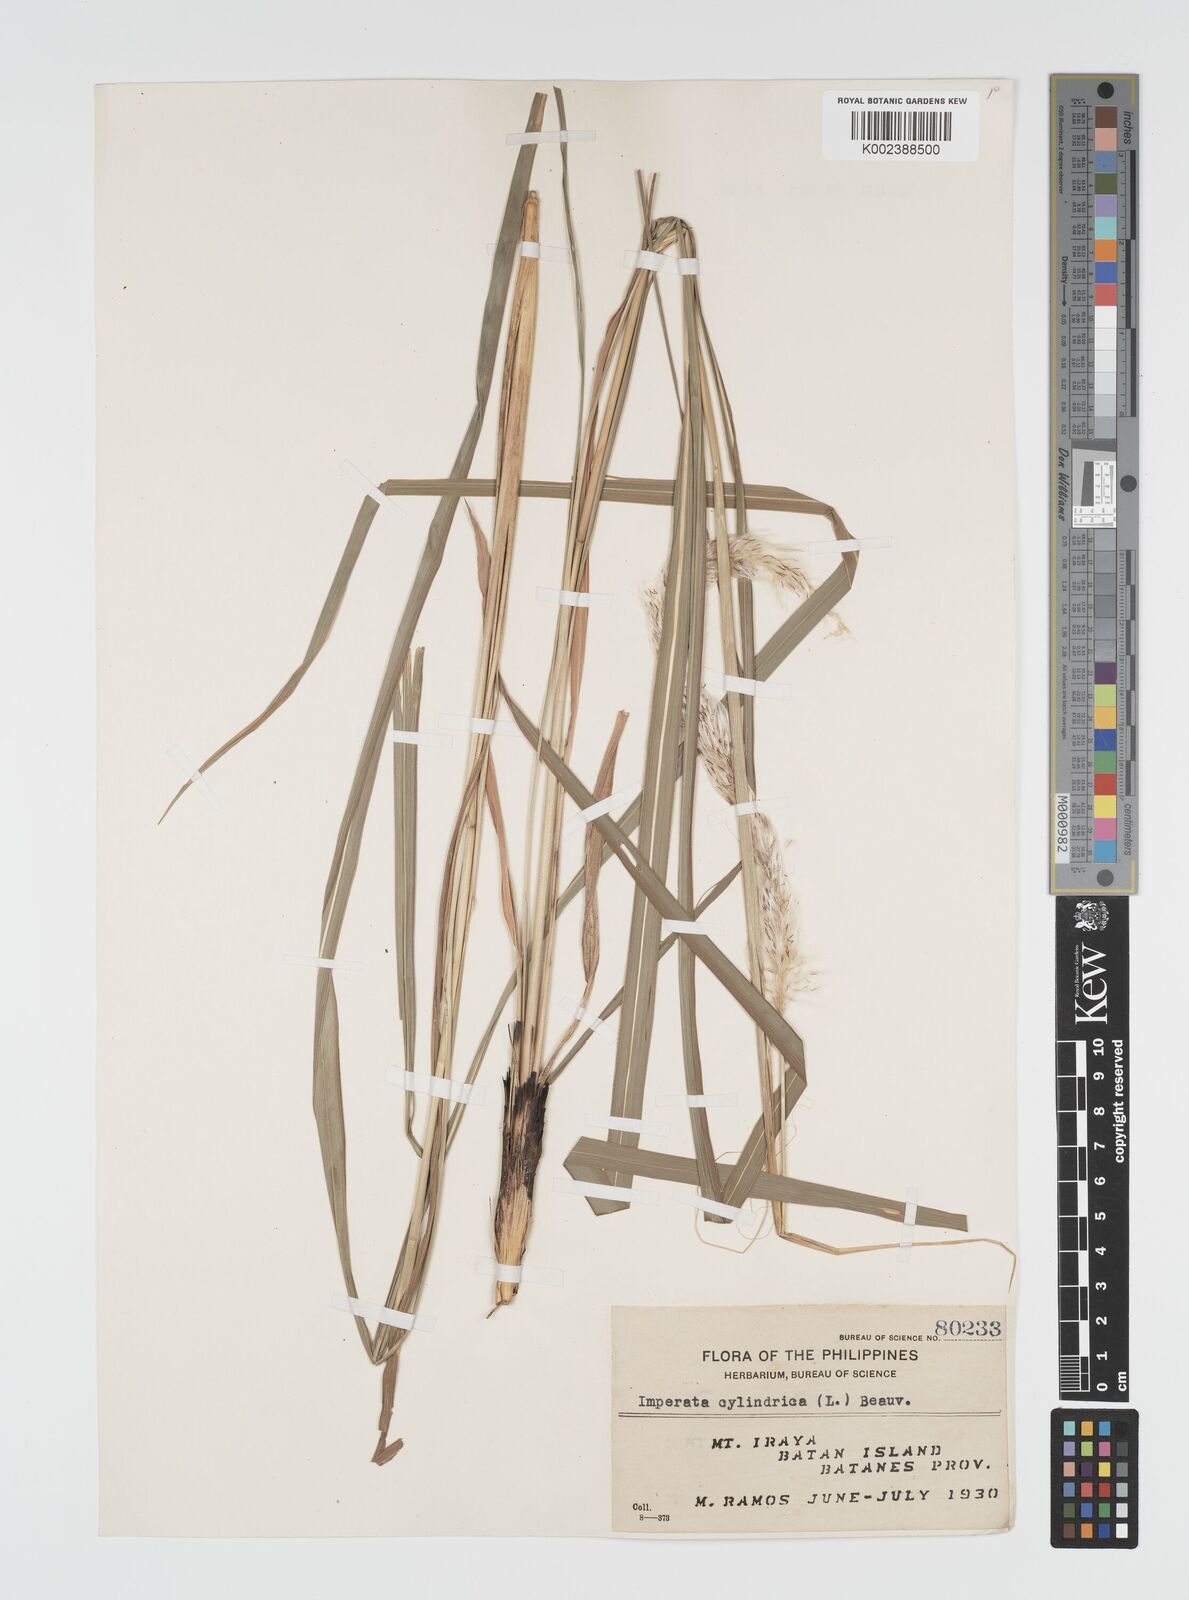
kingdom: Plantae
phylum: Tracheophyta
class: Liliopsida
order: Poales
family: Poaceae
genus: Imperata
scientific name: Imperata cylindrica
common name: Cogongrass
